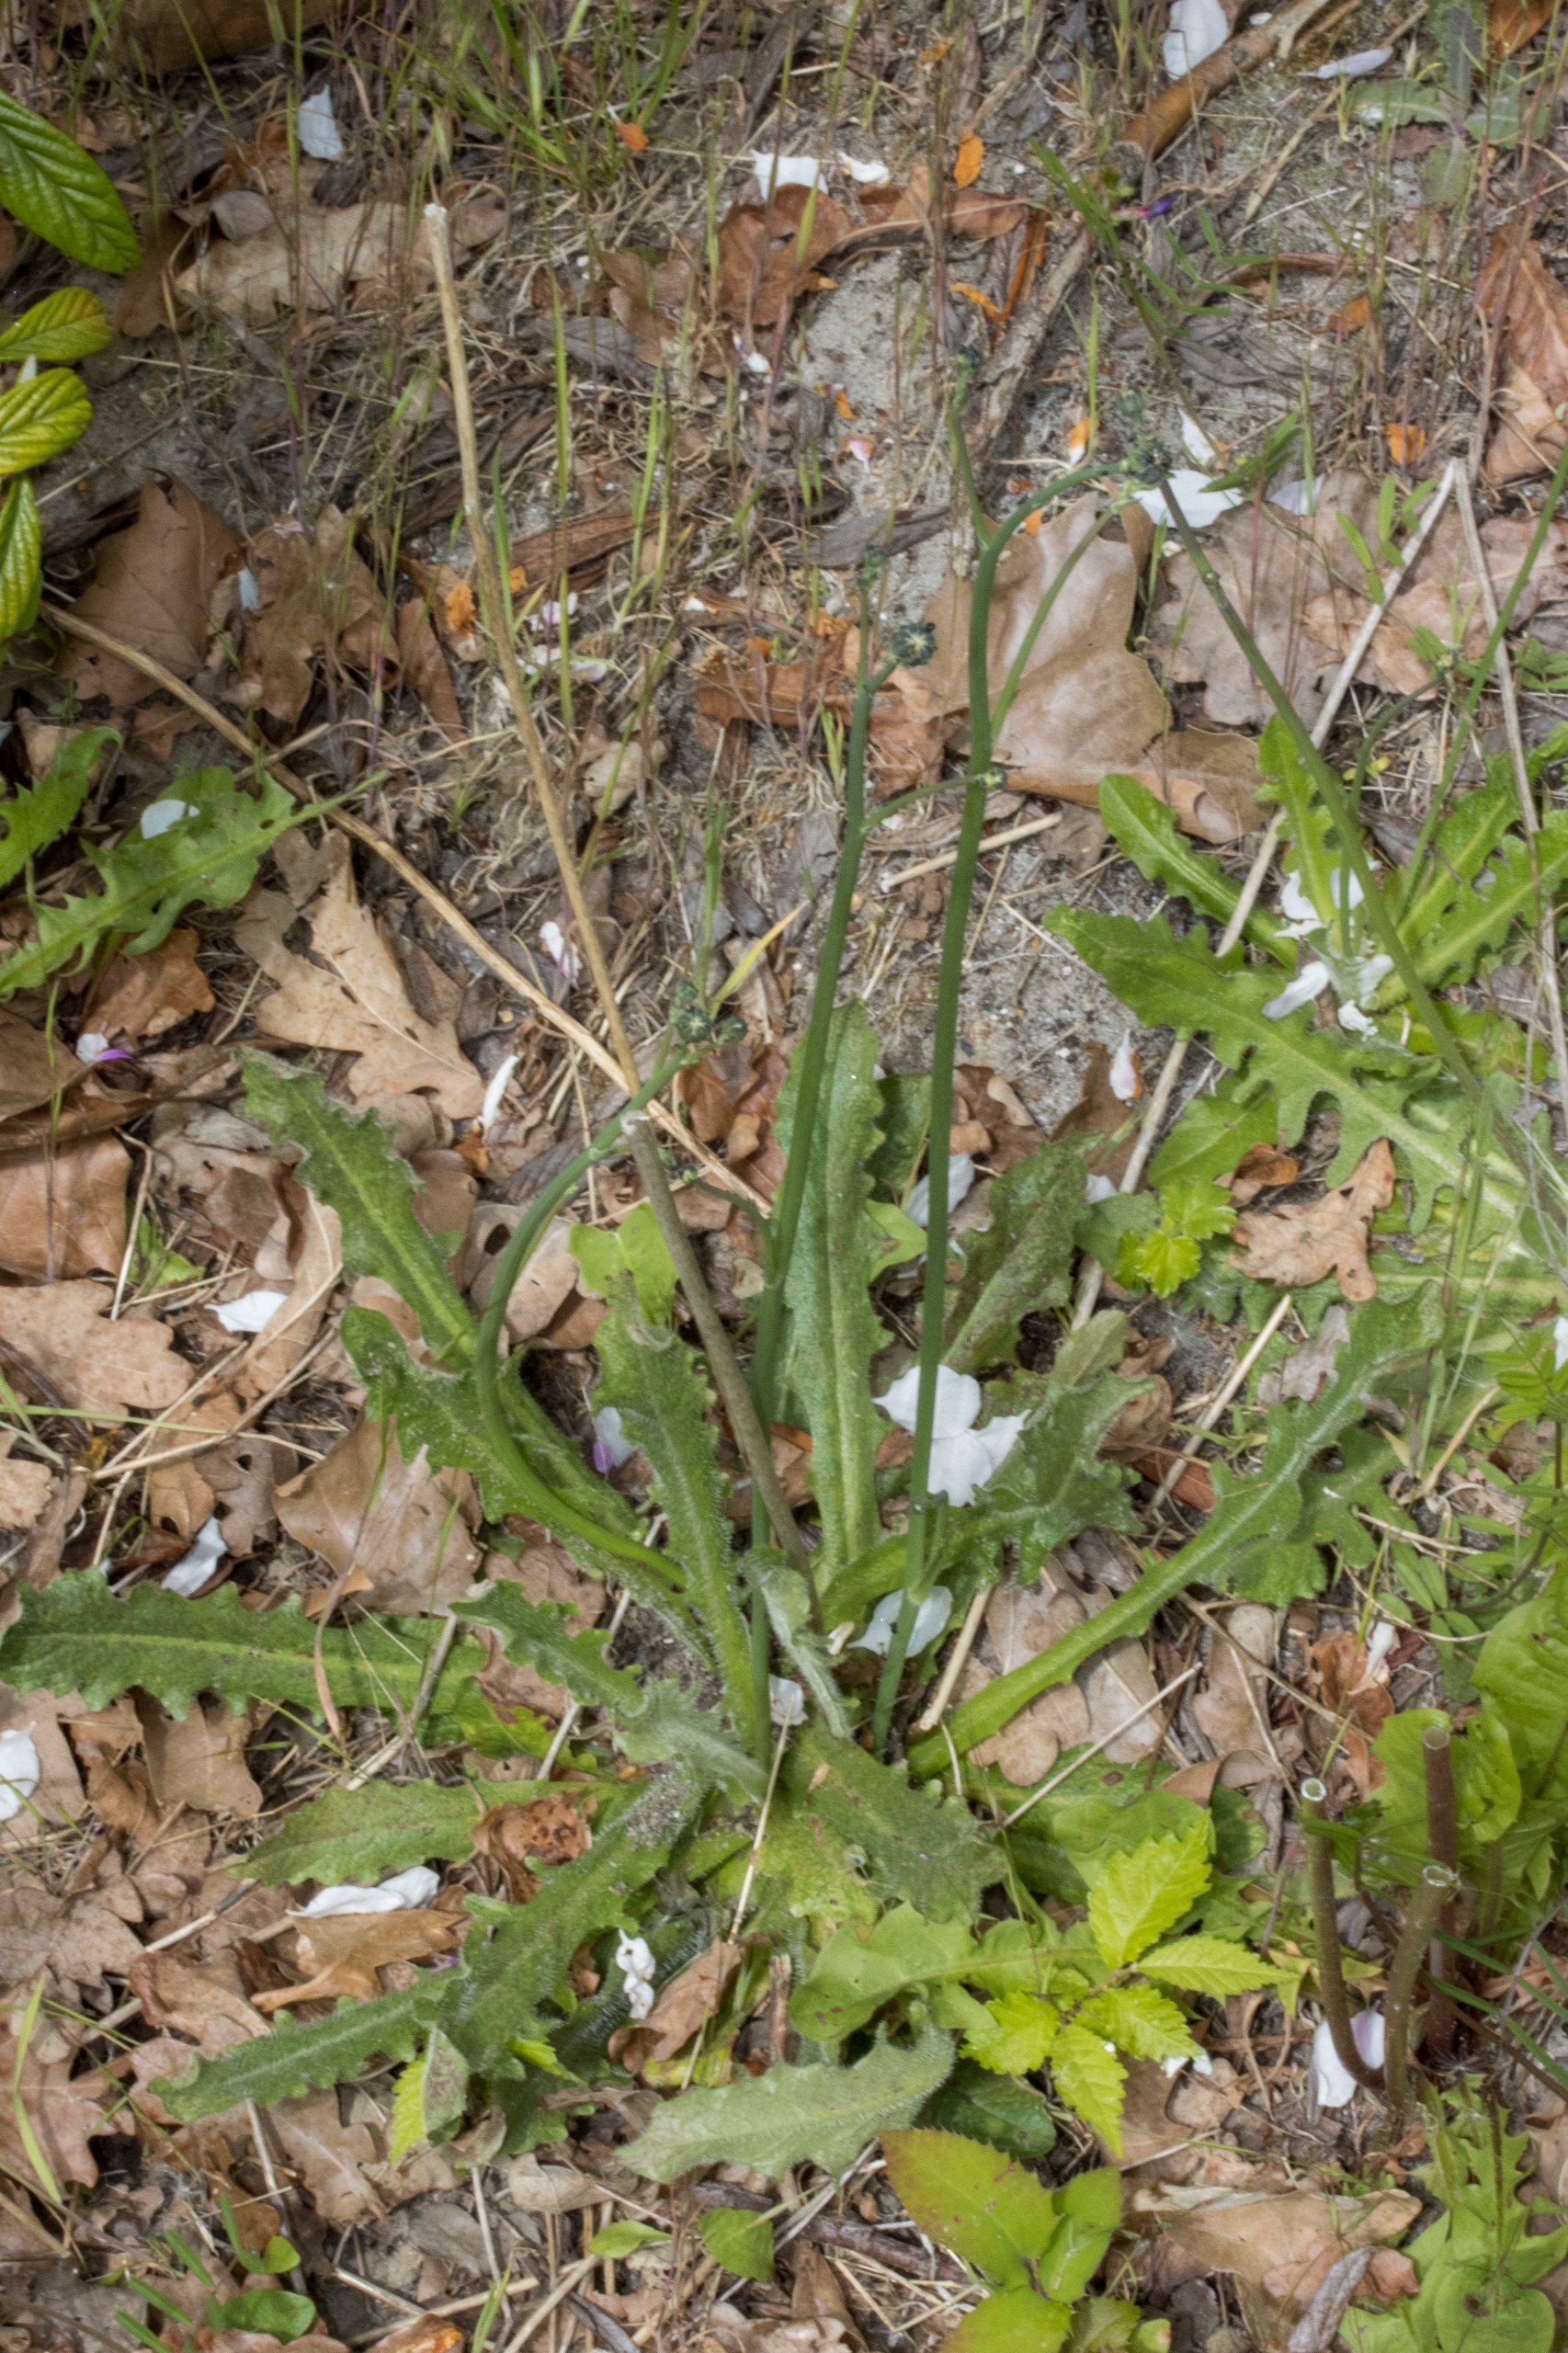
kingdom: Plantae
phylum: Tracheophyta
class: Magnoliopsida
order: Asterales
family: Asteraceae
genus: Hypochaeris
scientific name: Hypochaeris radicata
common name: Almindelig kongepen
